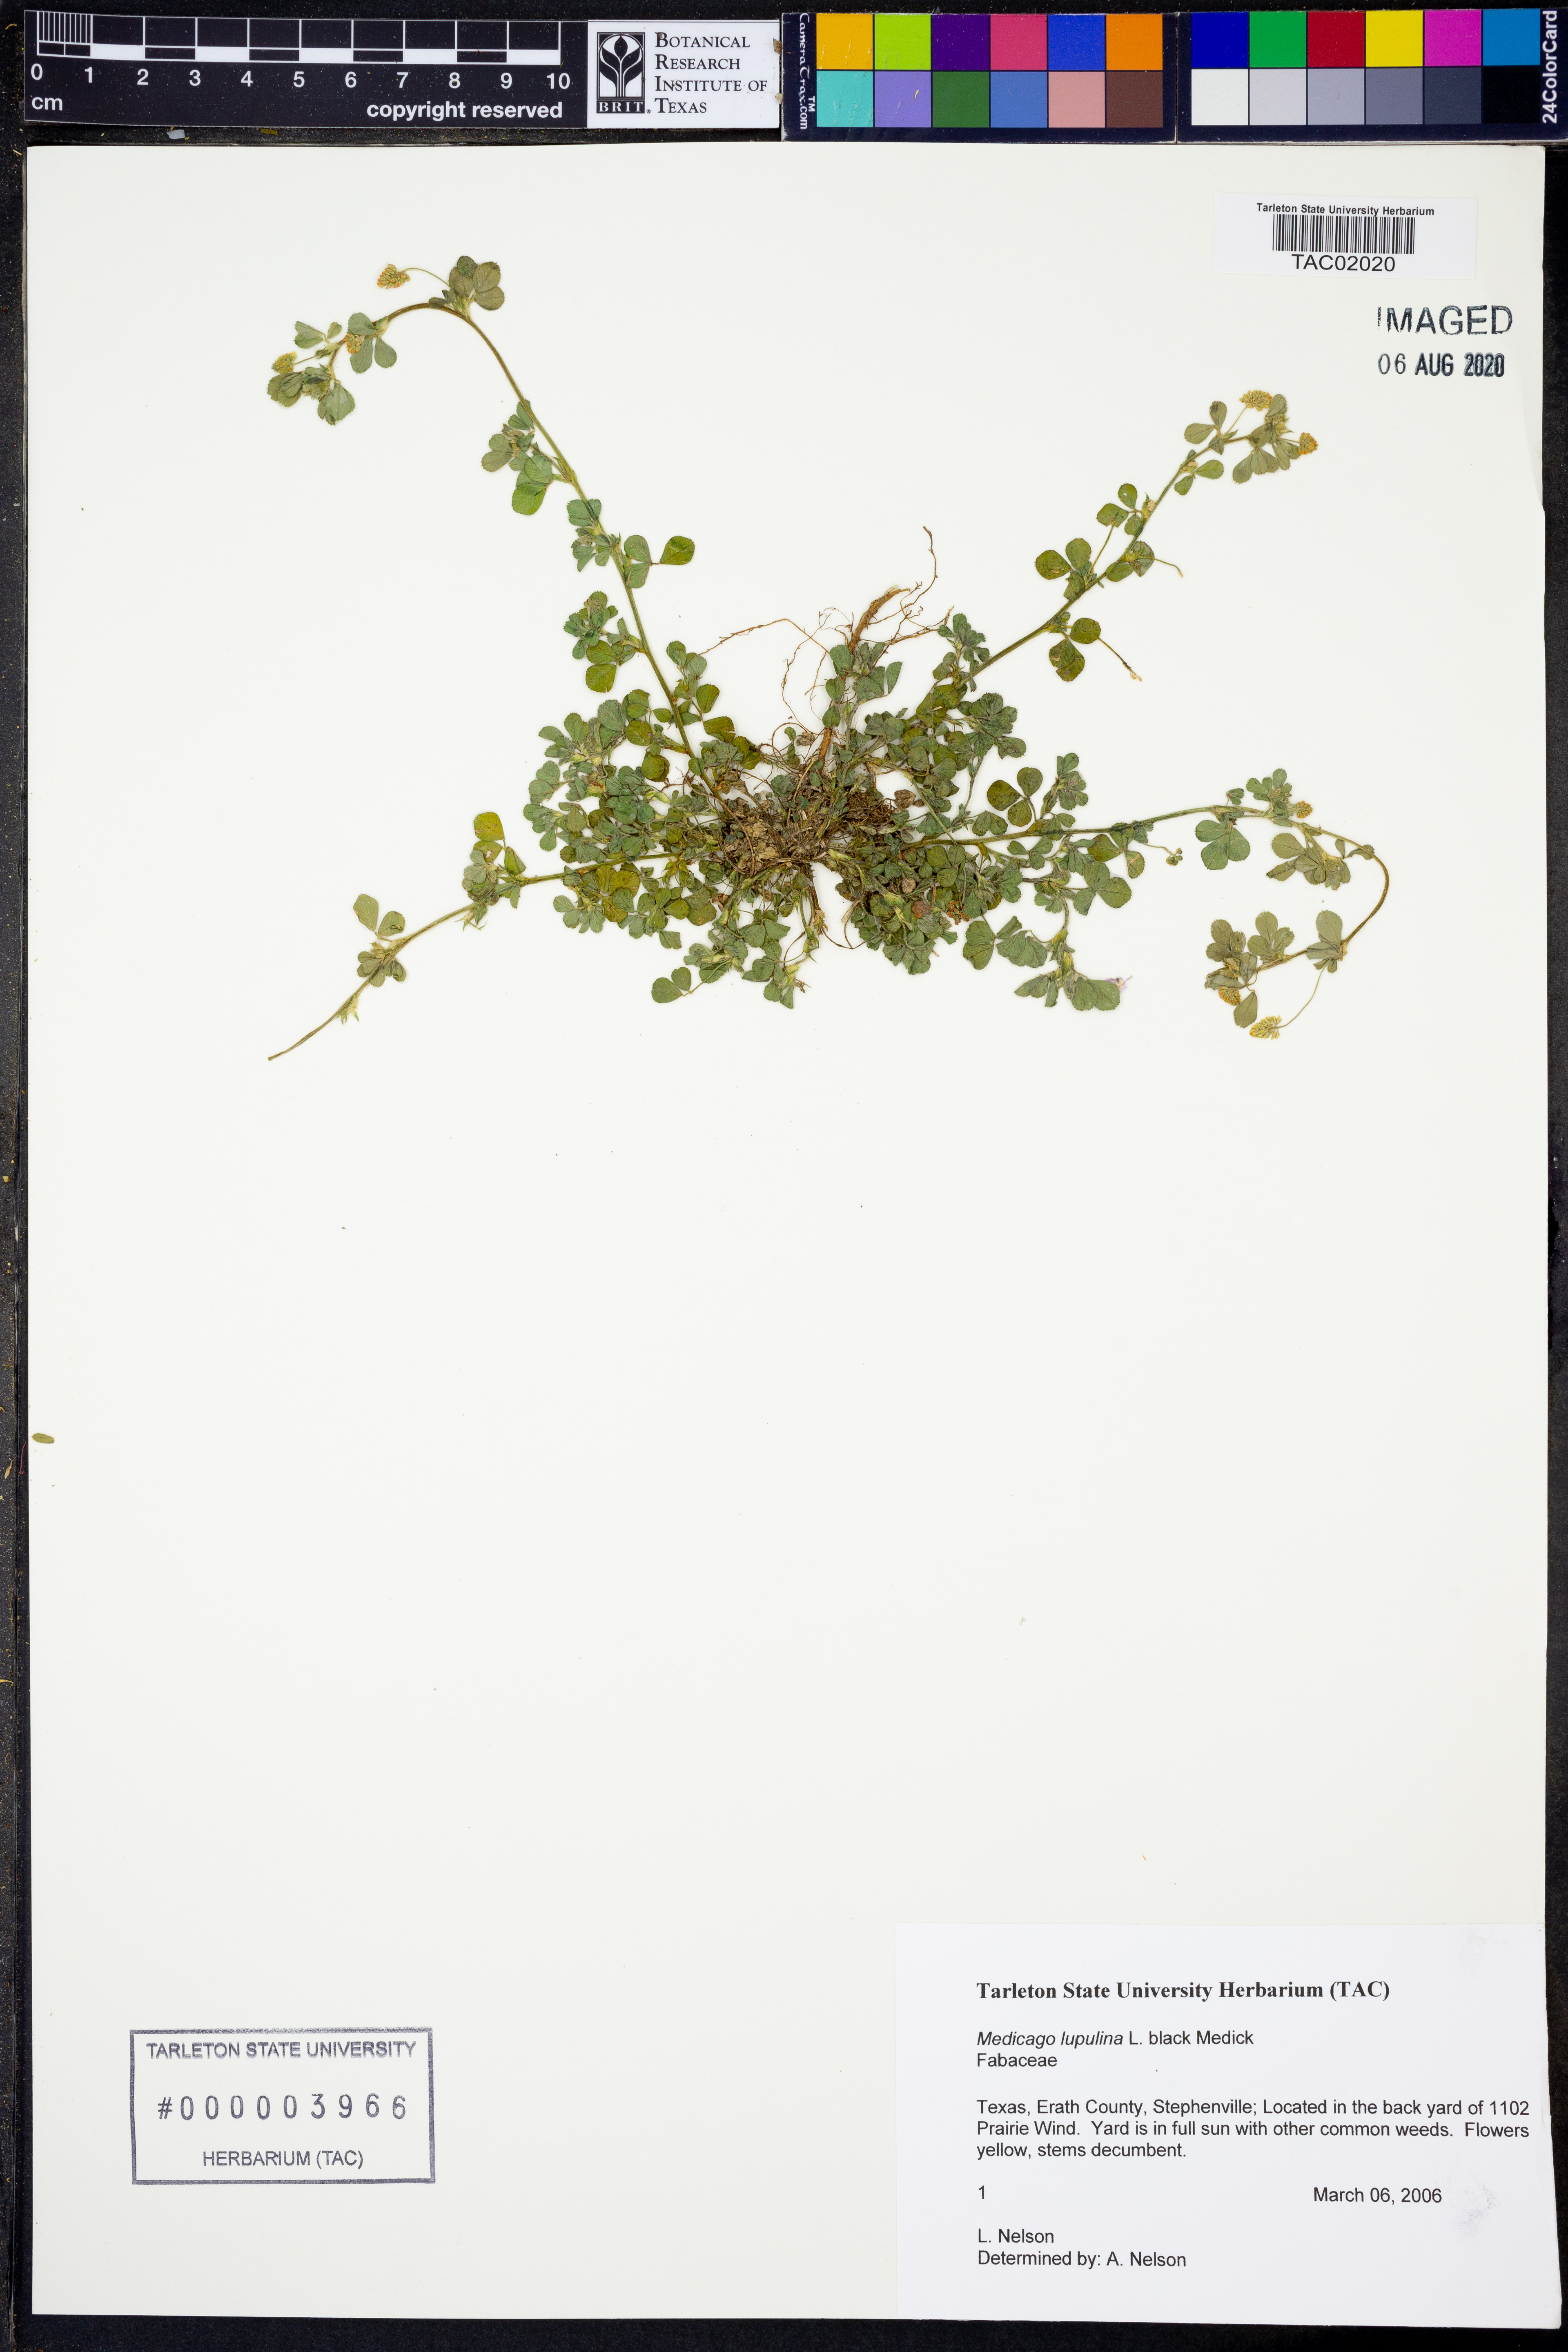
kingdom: Plantae
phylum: Tracheophyta
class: Magnoliopsida
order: Fabales
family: Fabaceae
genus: Medicago
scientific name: Medicago lupulina
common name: Black medick
